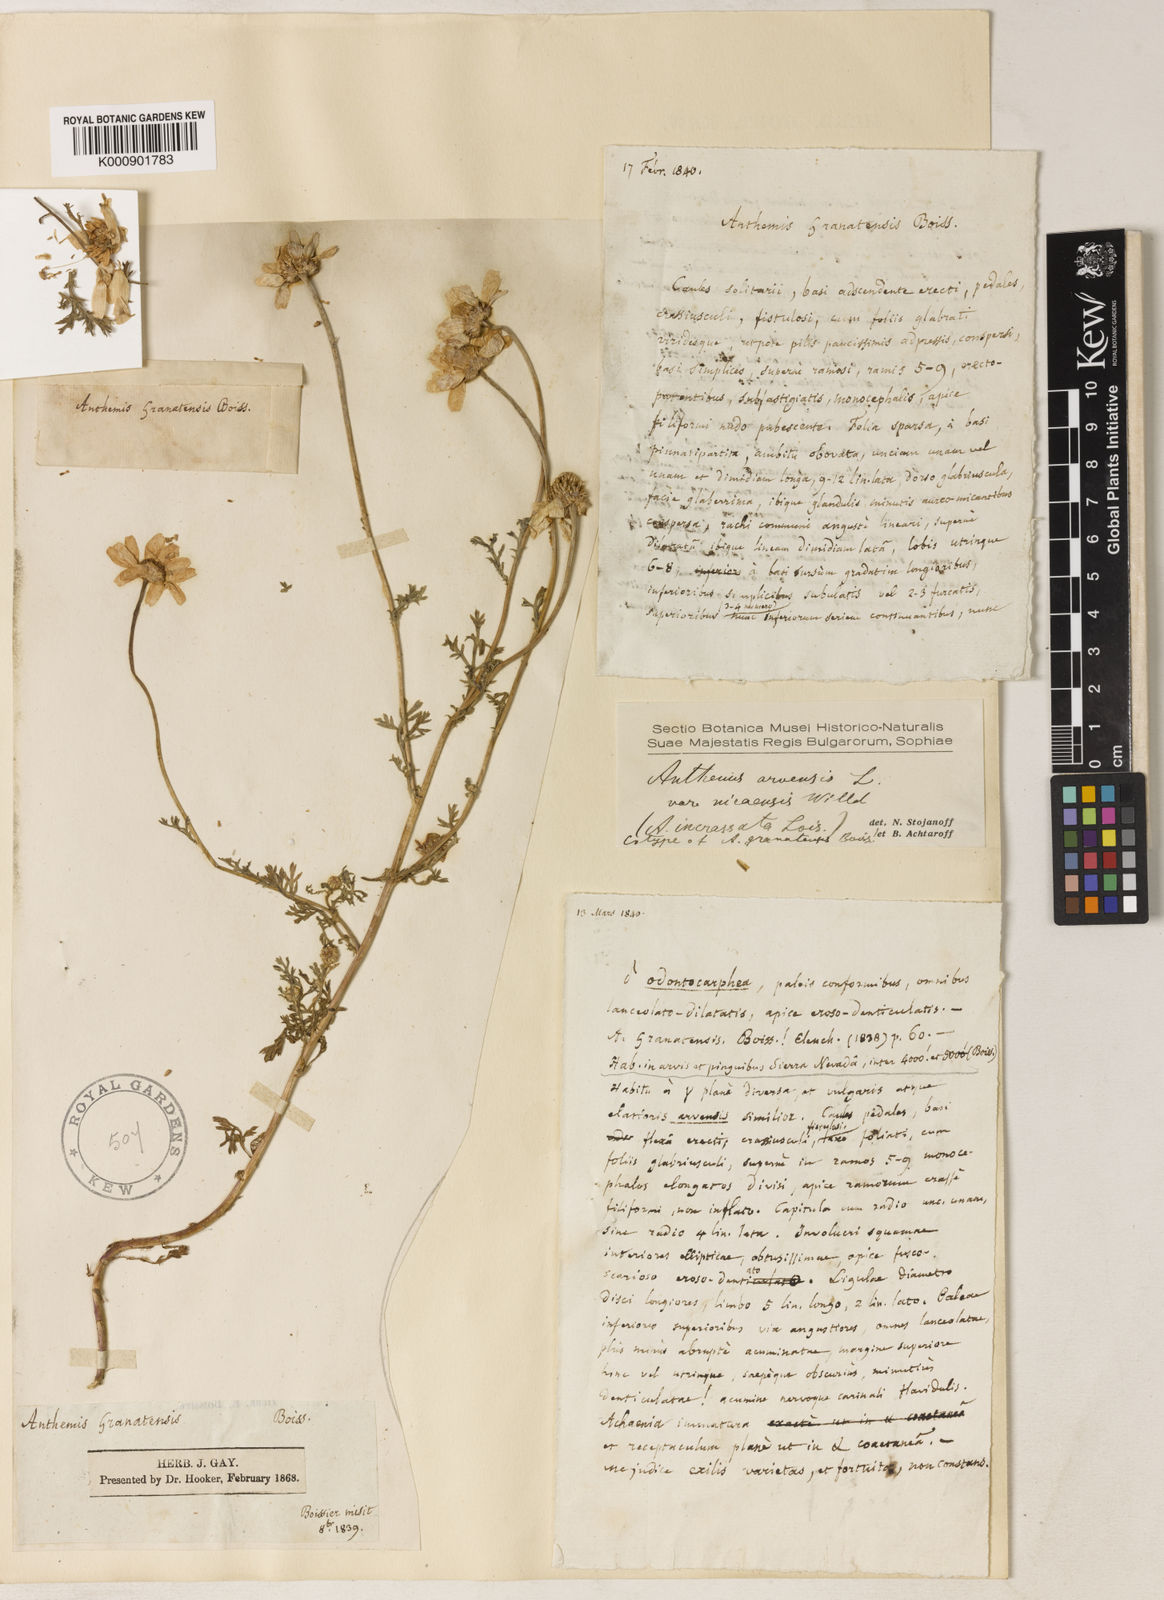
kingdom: Plantae
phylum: Tracheophyta
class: Magnoliopsida
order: Asterales
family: Asteraceae
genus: Anthemis
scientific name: Anthemis arvensis
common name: Corn chamomile
